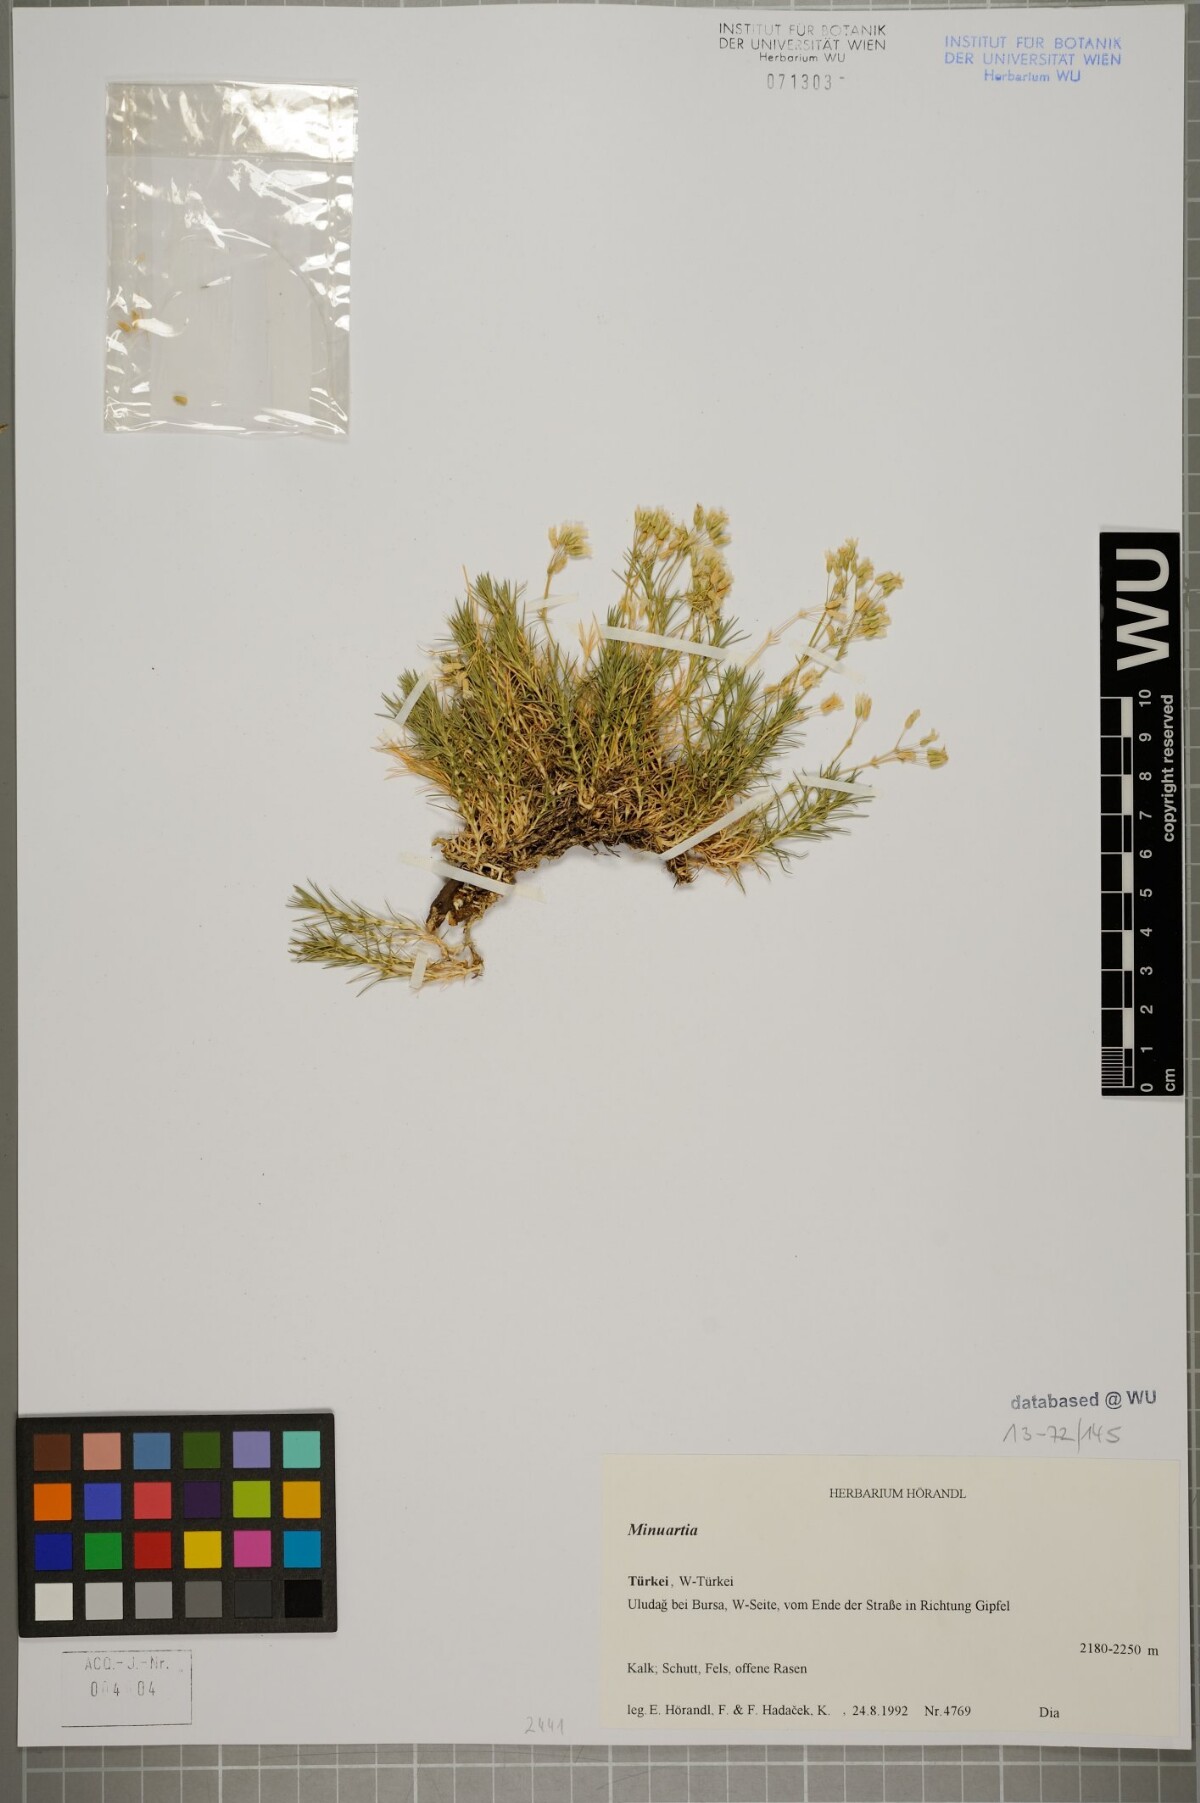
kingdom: Plantae
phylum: Tracheophyta
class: Magnoliopsida
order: Caryophyllales
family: Caryophyllaceae
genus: Sabulina
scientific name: Sabulina juniperina
